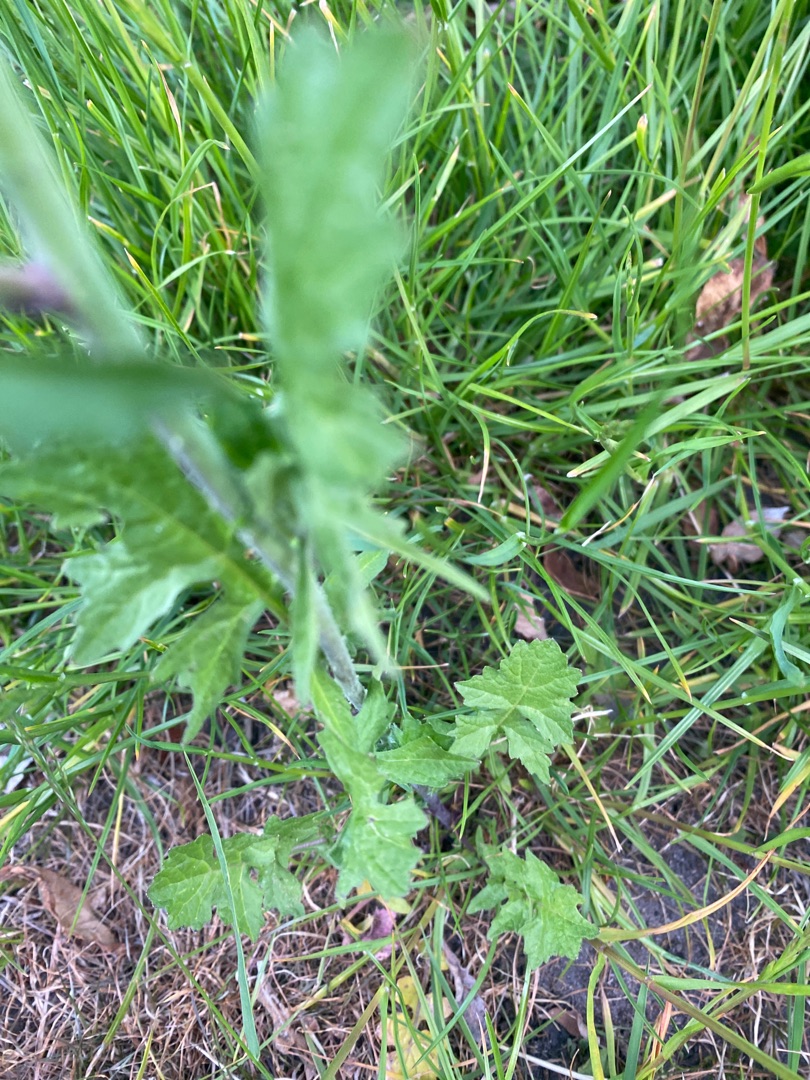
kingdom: Plantae
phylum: Tracheophyta
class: Magnoliopsida
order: Brassicales
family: Brassicaceae
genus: Sisymbrium
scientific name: Sisymbrium officinale
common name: Rank vejsennep
